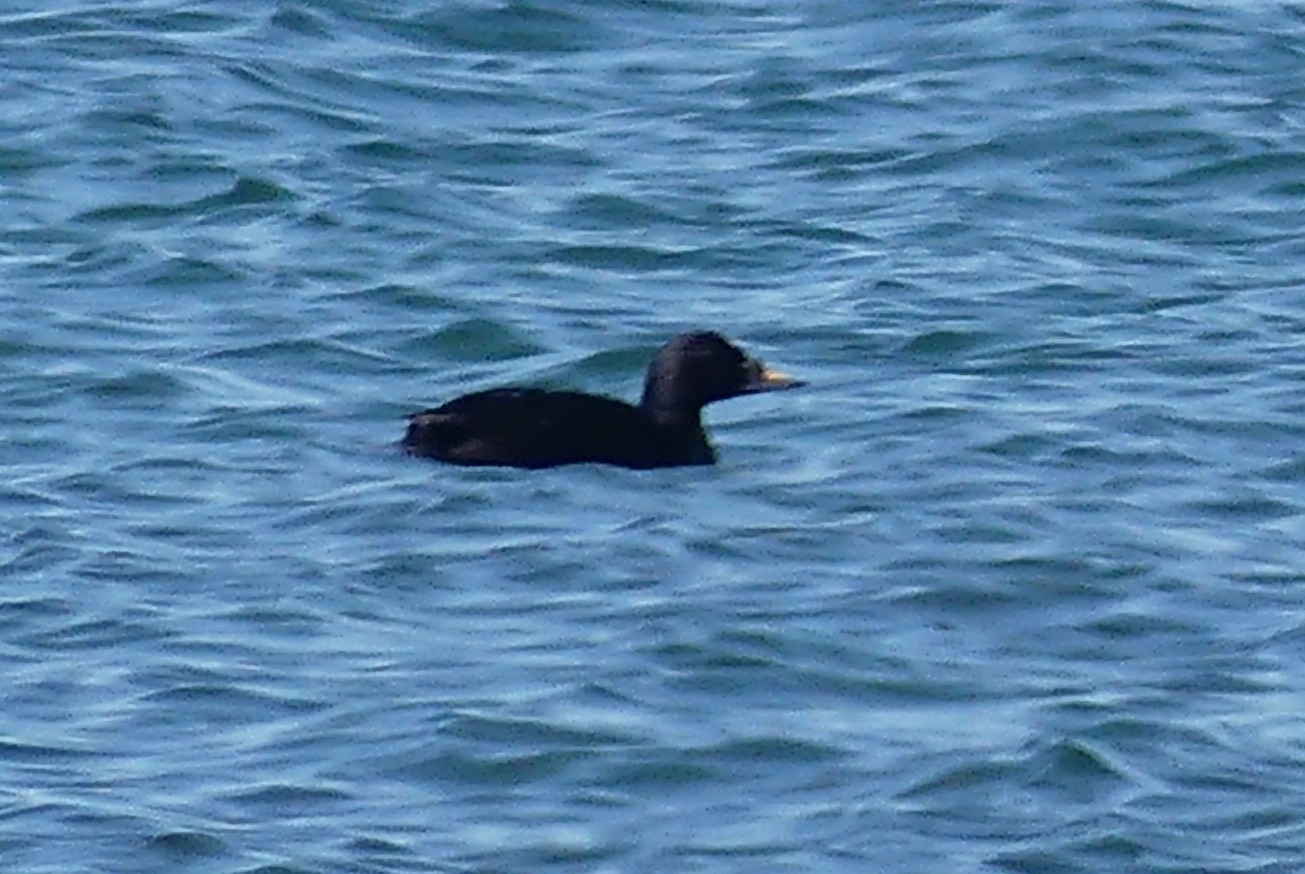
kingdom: Animalia
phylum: Chordata
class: Aves
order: Anseriformes
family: Anatidae
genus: Melanitta
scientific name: Melanitta nigra
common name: Sortand
